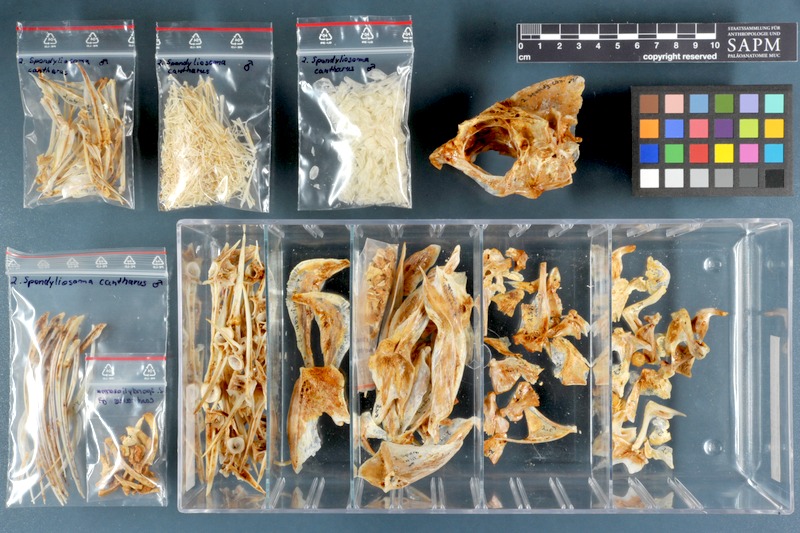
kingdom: Animalia
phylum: Chordata
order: Perciformes
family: Sparidae
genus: Spondyliosoma
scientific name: Spondyliosoma cantharus
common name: Black seabream
